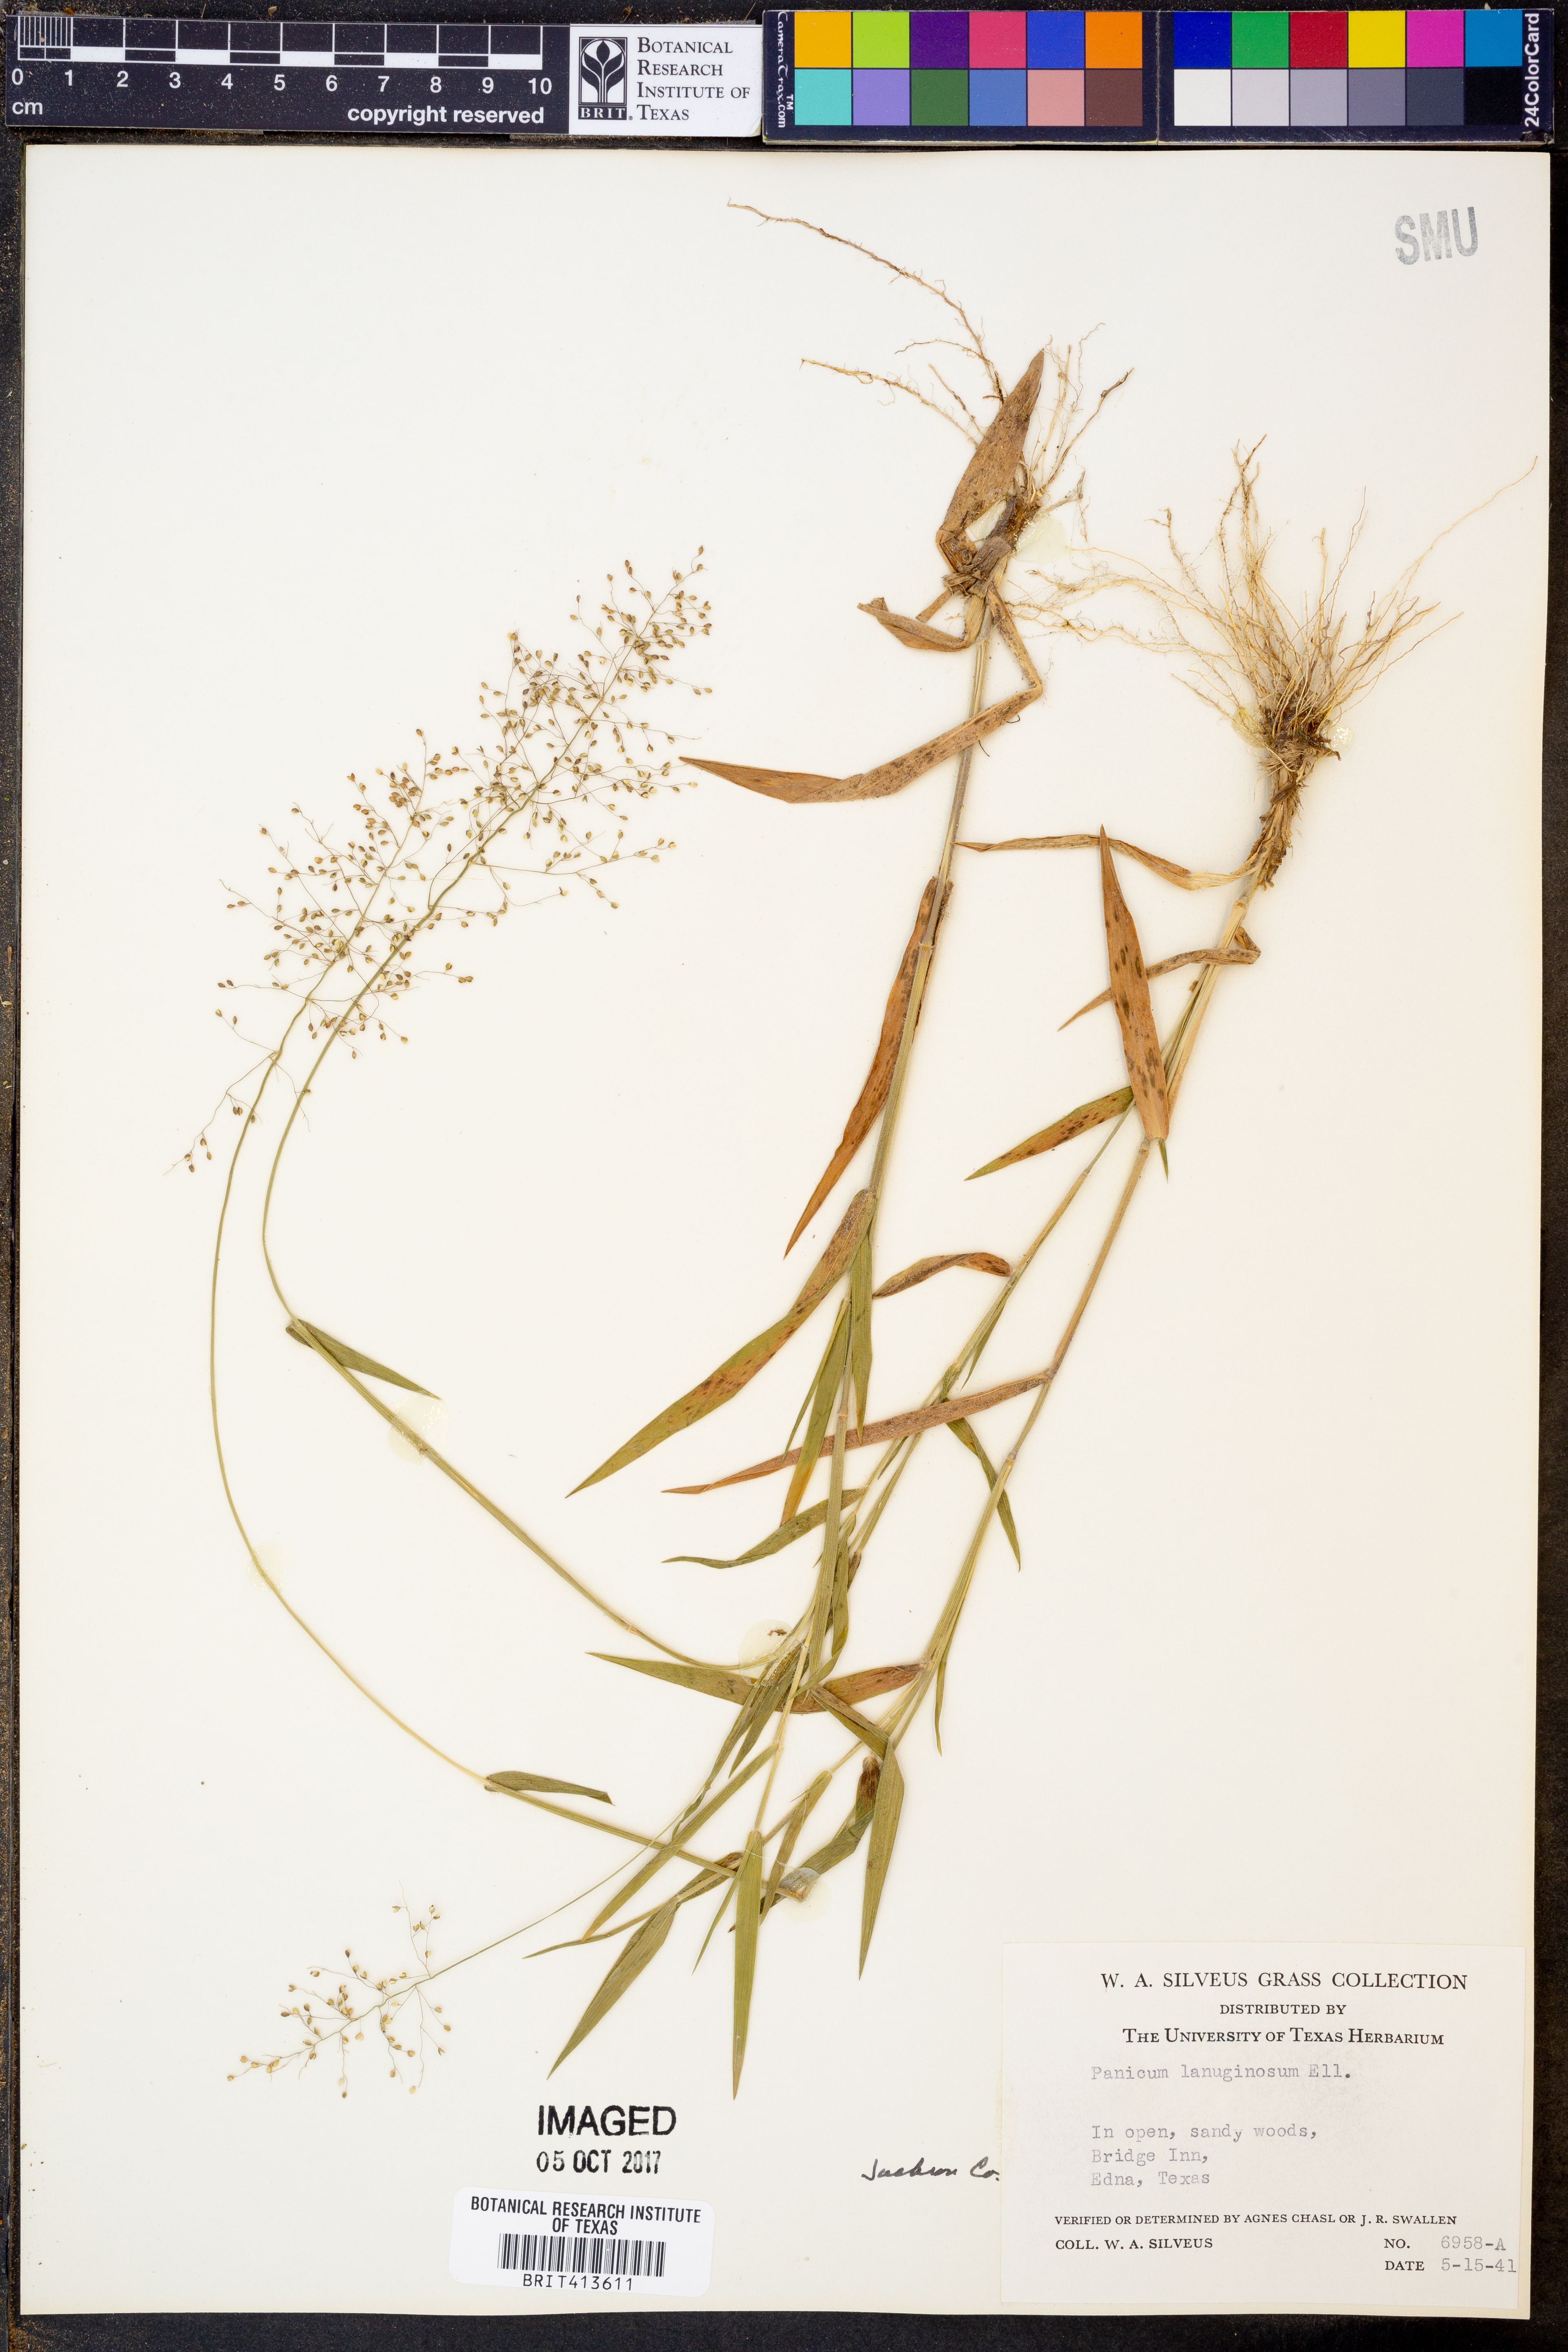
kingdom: Plantae
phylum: Tracheophyta
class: Liliopsida
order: Poales
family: Poaceae
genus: Dichanthelium
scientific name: Dichanthelium lanuginosum
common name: Woolly panicgrass
